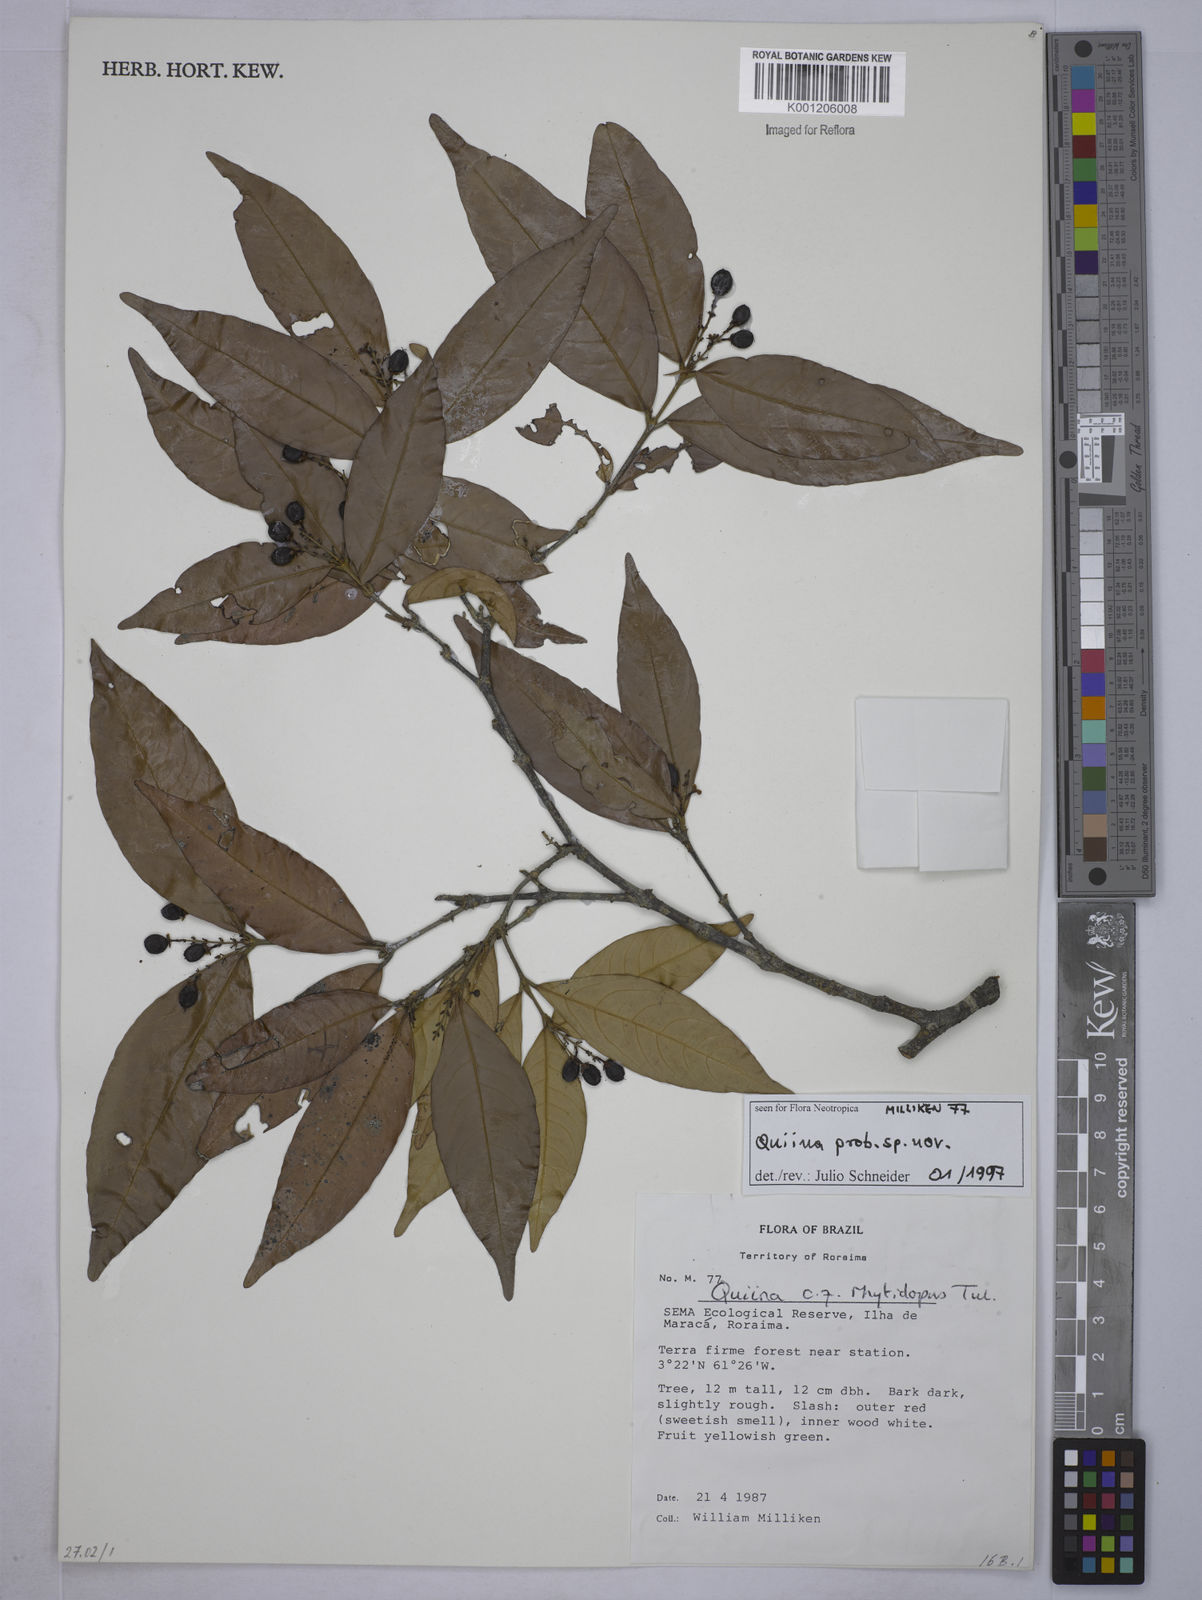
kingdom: Plantae
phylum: Tracheophyta
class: Magnoliopsida
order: Malpighiales
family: Quiinaceae
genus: Quiina
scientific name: Quiina
